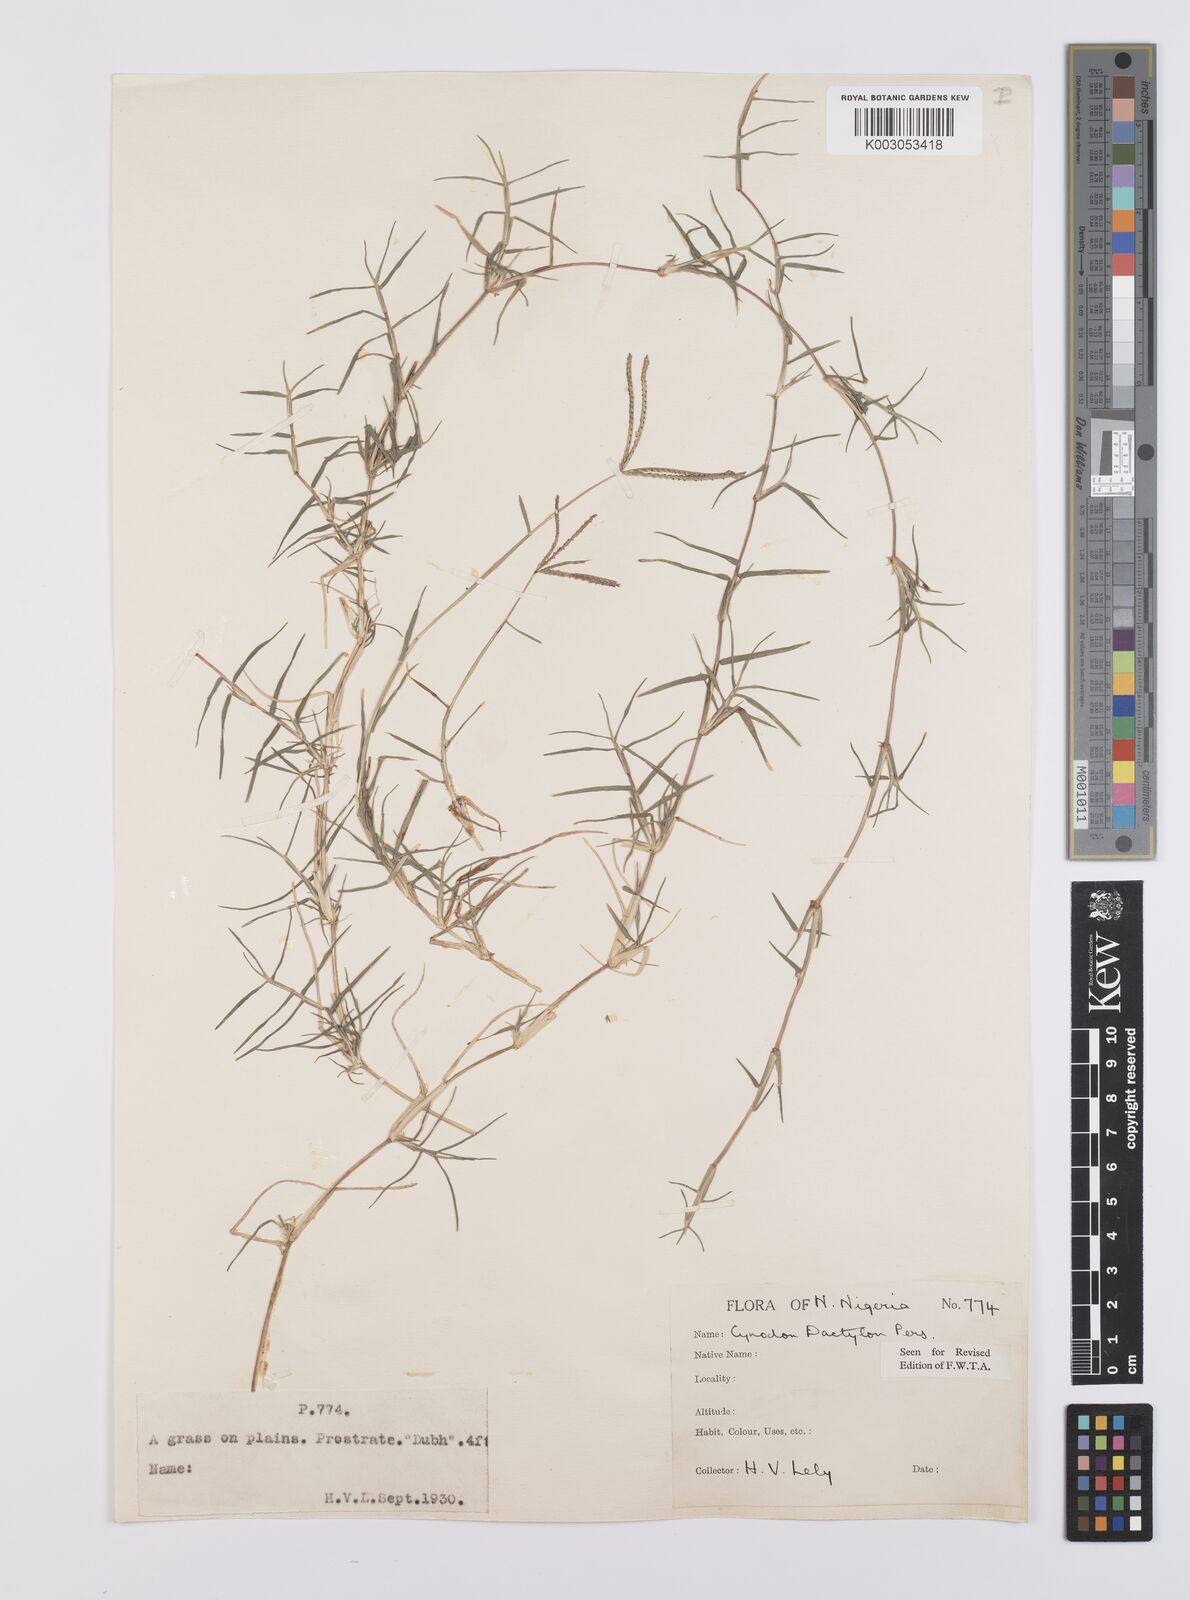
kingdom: Plantae
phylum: Tracheophyta
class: Liliopsida
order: Poales
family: Poaceae
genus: Cynodon
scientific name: Cynodon dactylon
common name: Bermuda grass
